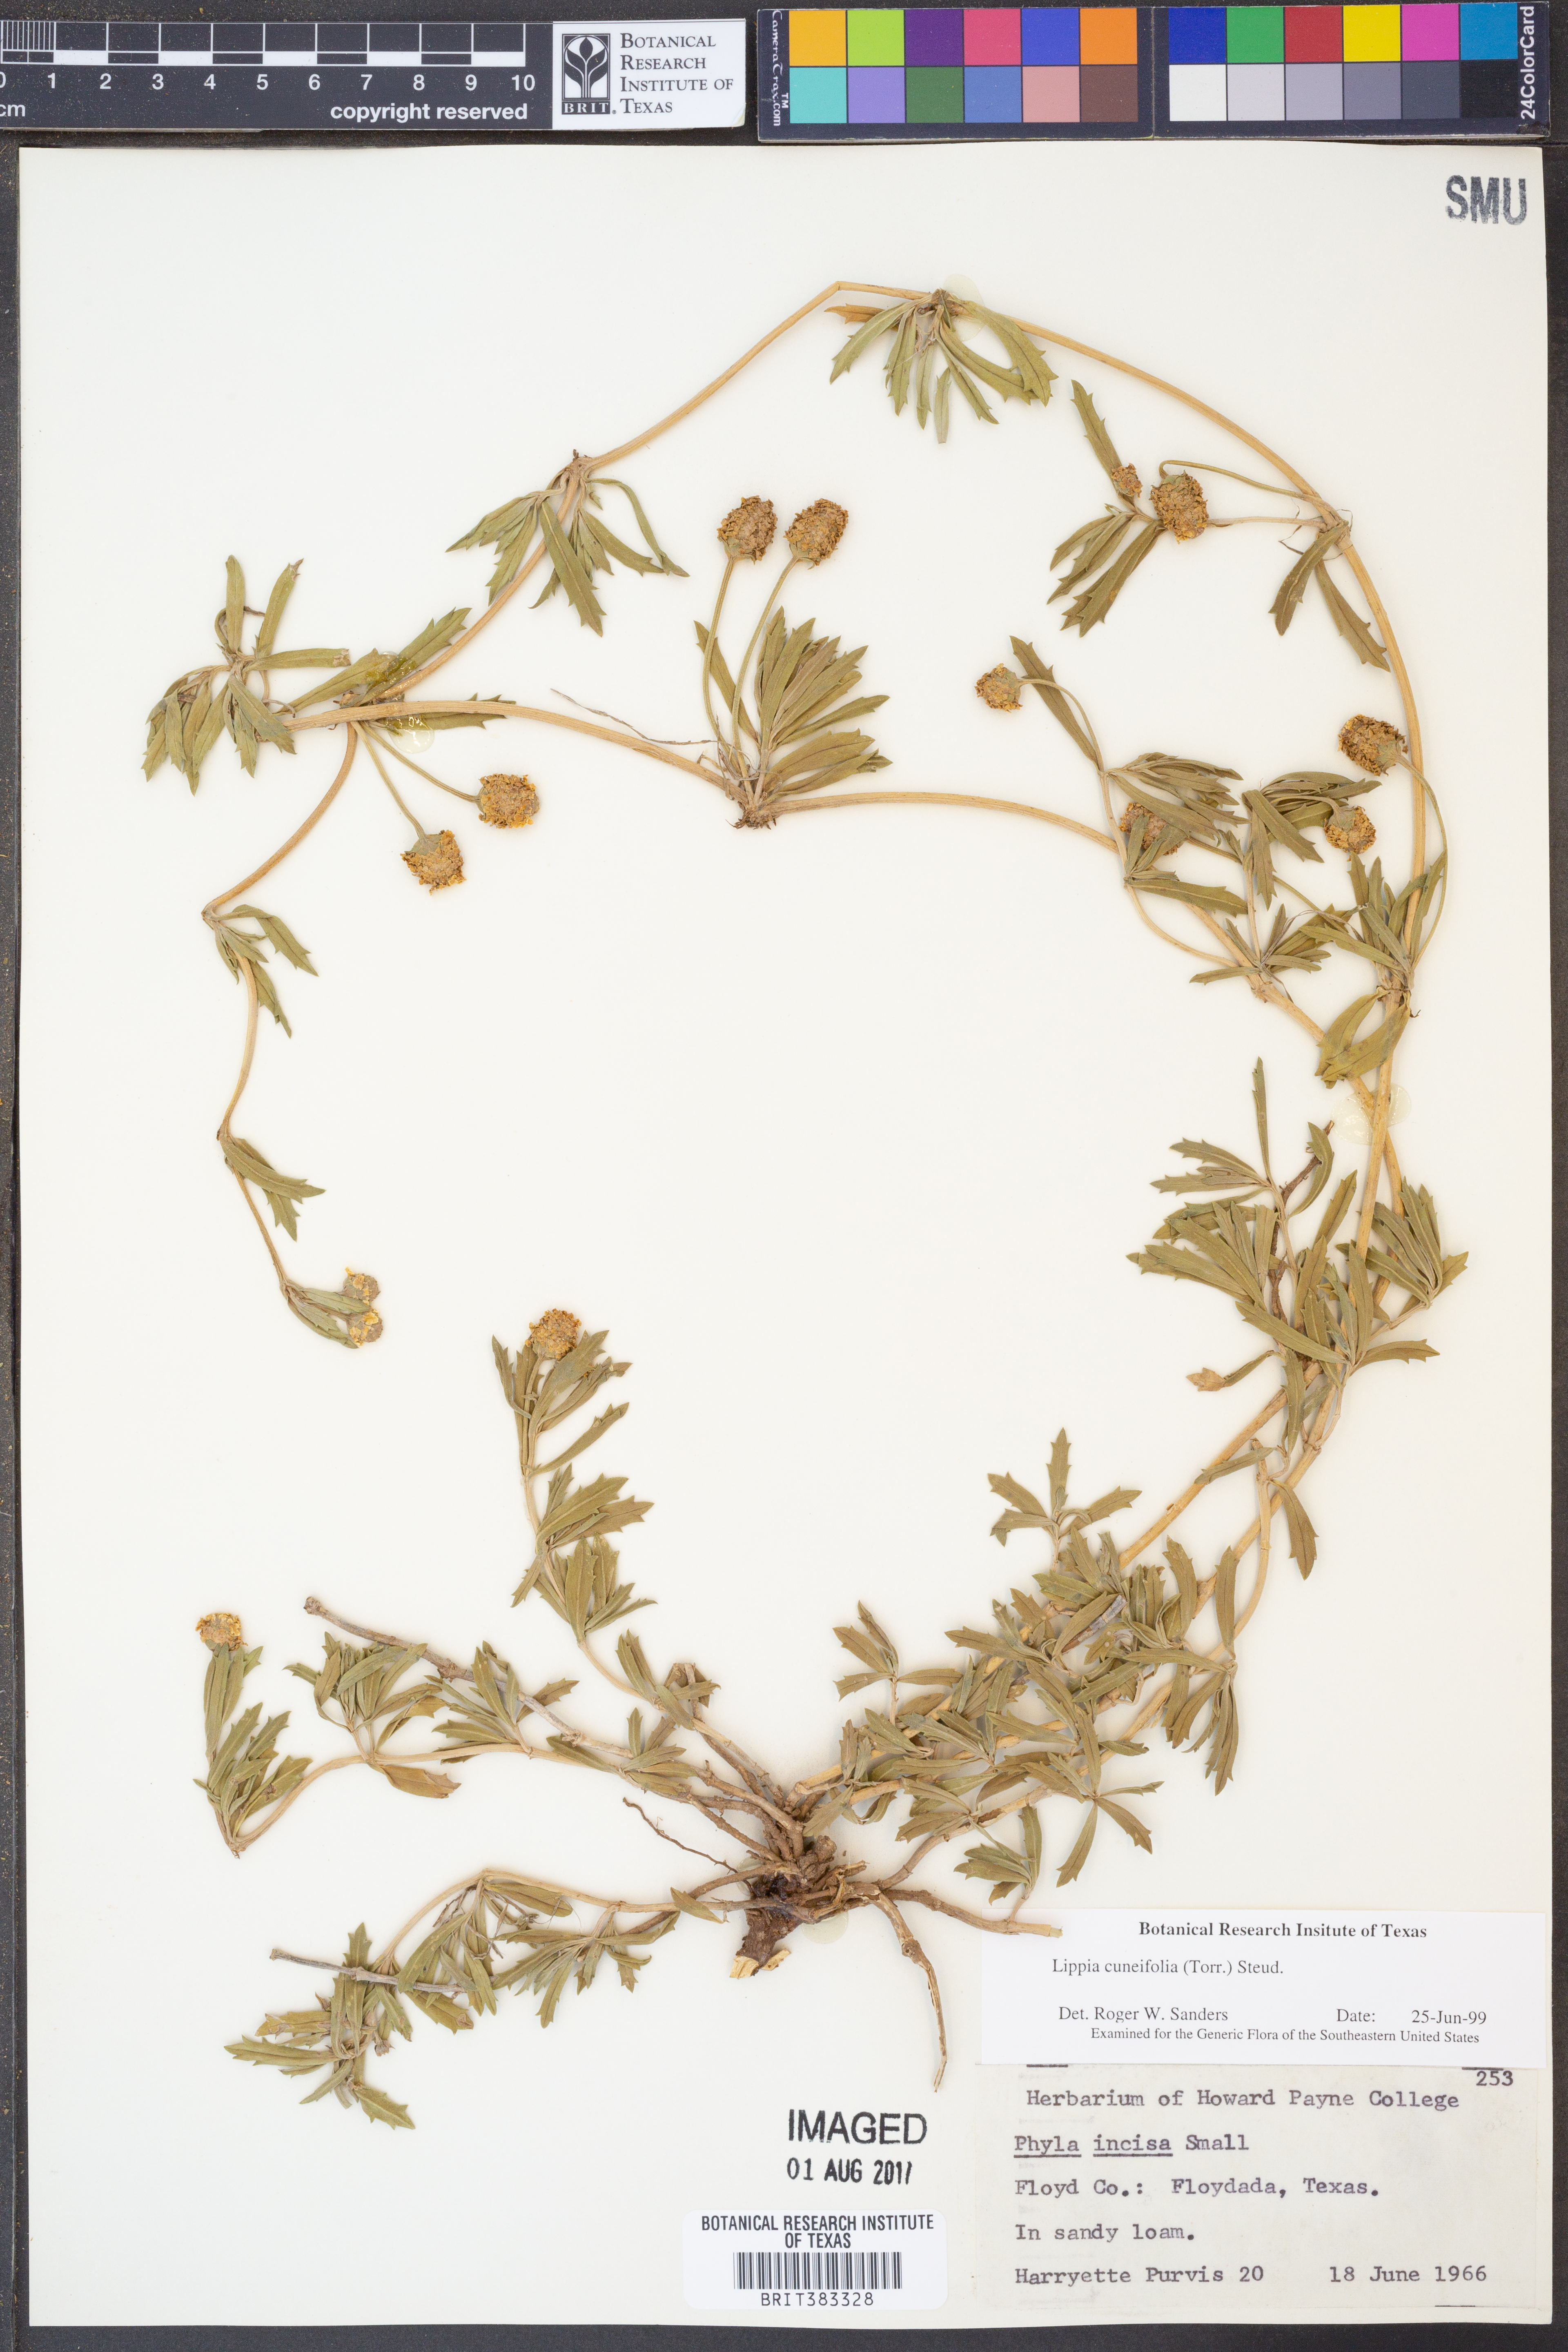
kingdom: Plantae
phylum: Tracheophyta
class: Magnoliopsida
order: Lamiales
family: Verbenaceae
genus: Phyla
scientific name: Phyla cuneifolia
